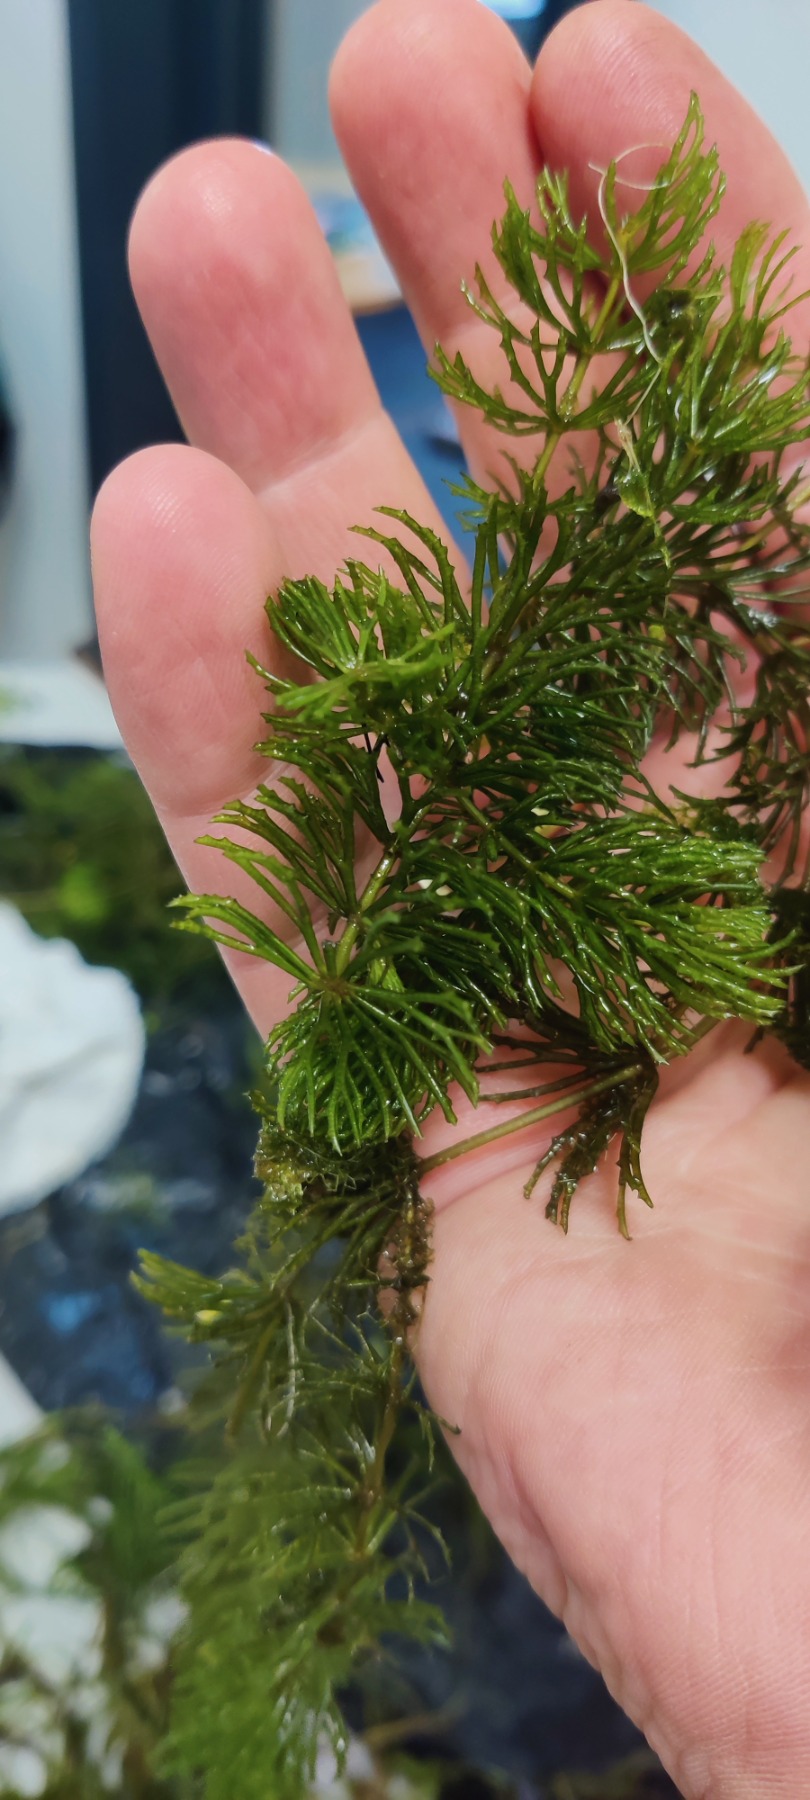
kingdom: Plantae
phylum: Tracheophyta
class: Magnoliopsida
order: Ceratophyllales
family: Ceratophyllaceae
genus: Ceratophyllum
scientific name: Ceratophyllum demersum
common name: Tornfrøet hornblad
